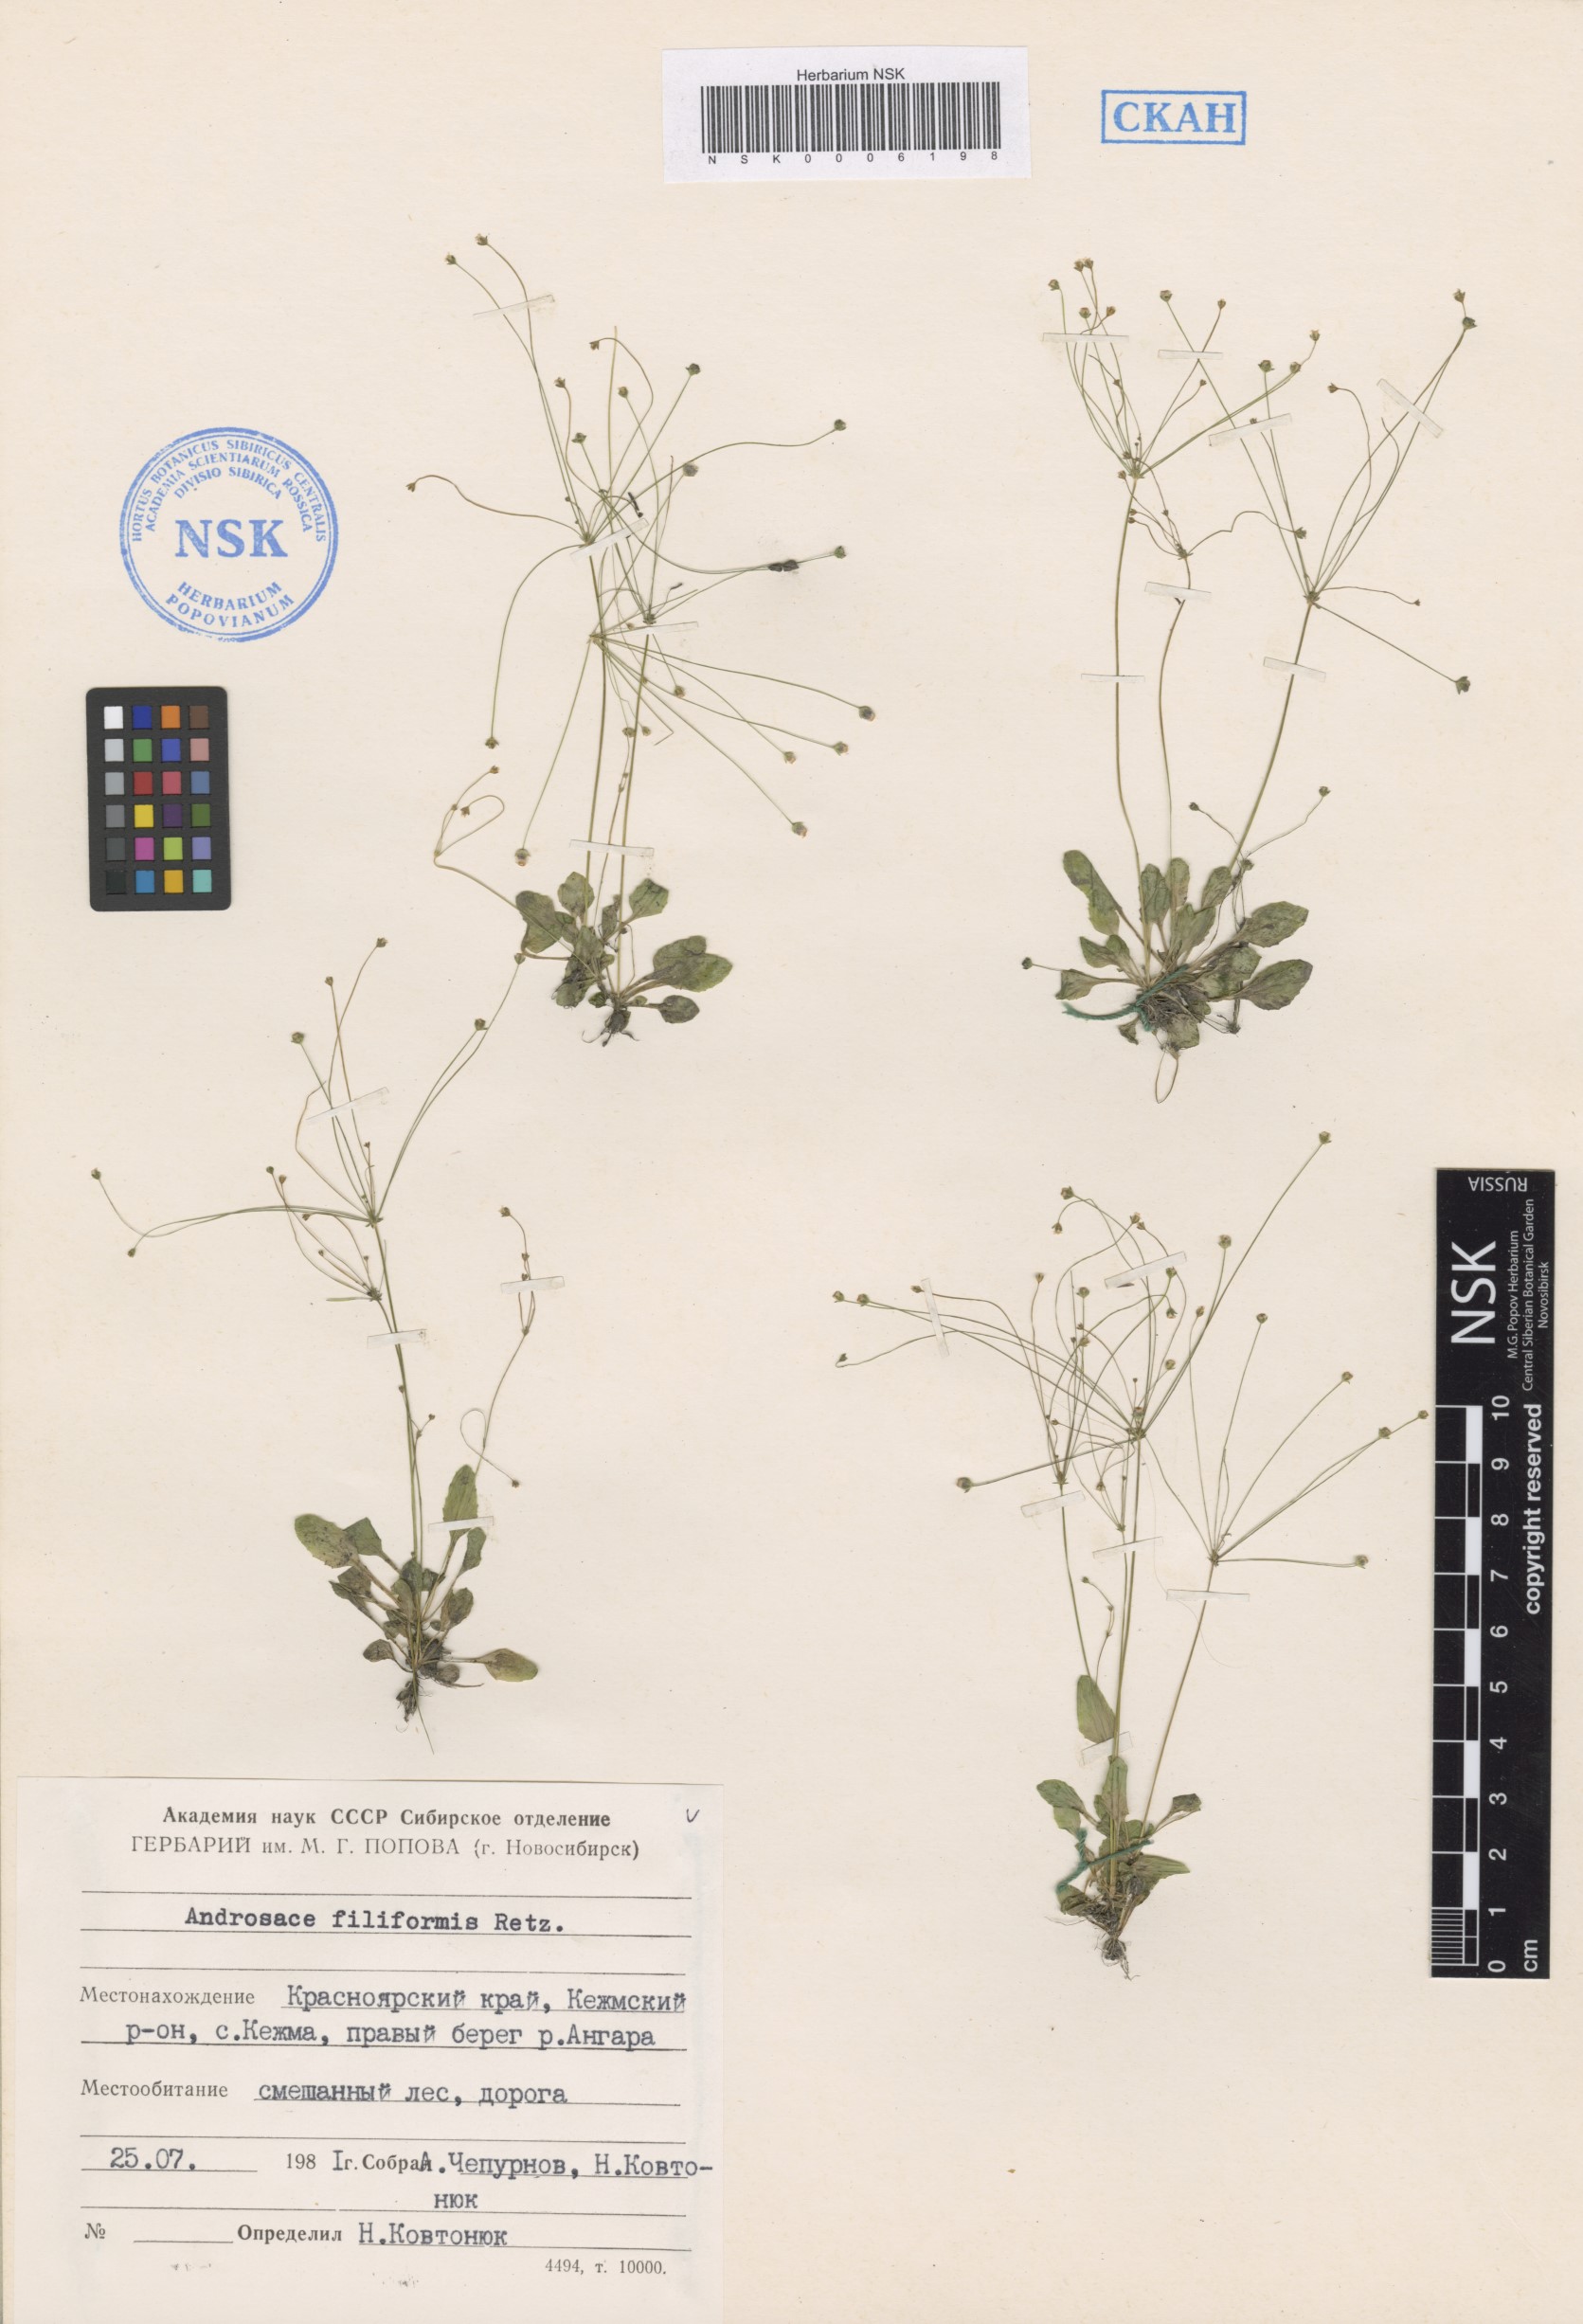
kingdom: Plantae
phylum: Tracheophyta
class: Magnoliopsida
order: Ericales
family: Primulaceae
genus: Androsace
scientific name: Androsace filiformis
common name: Filiform rock jasmine
